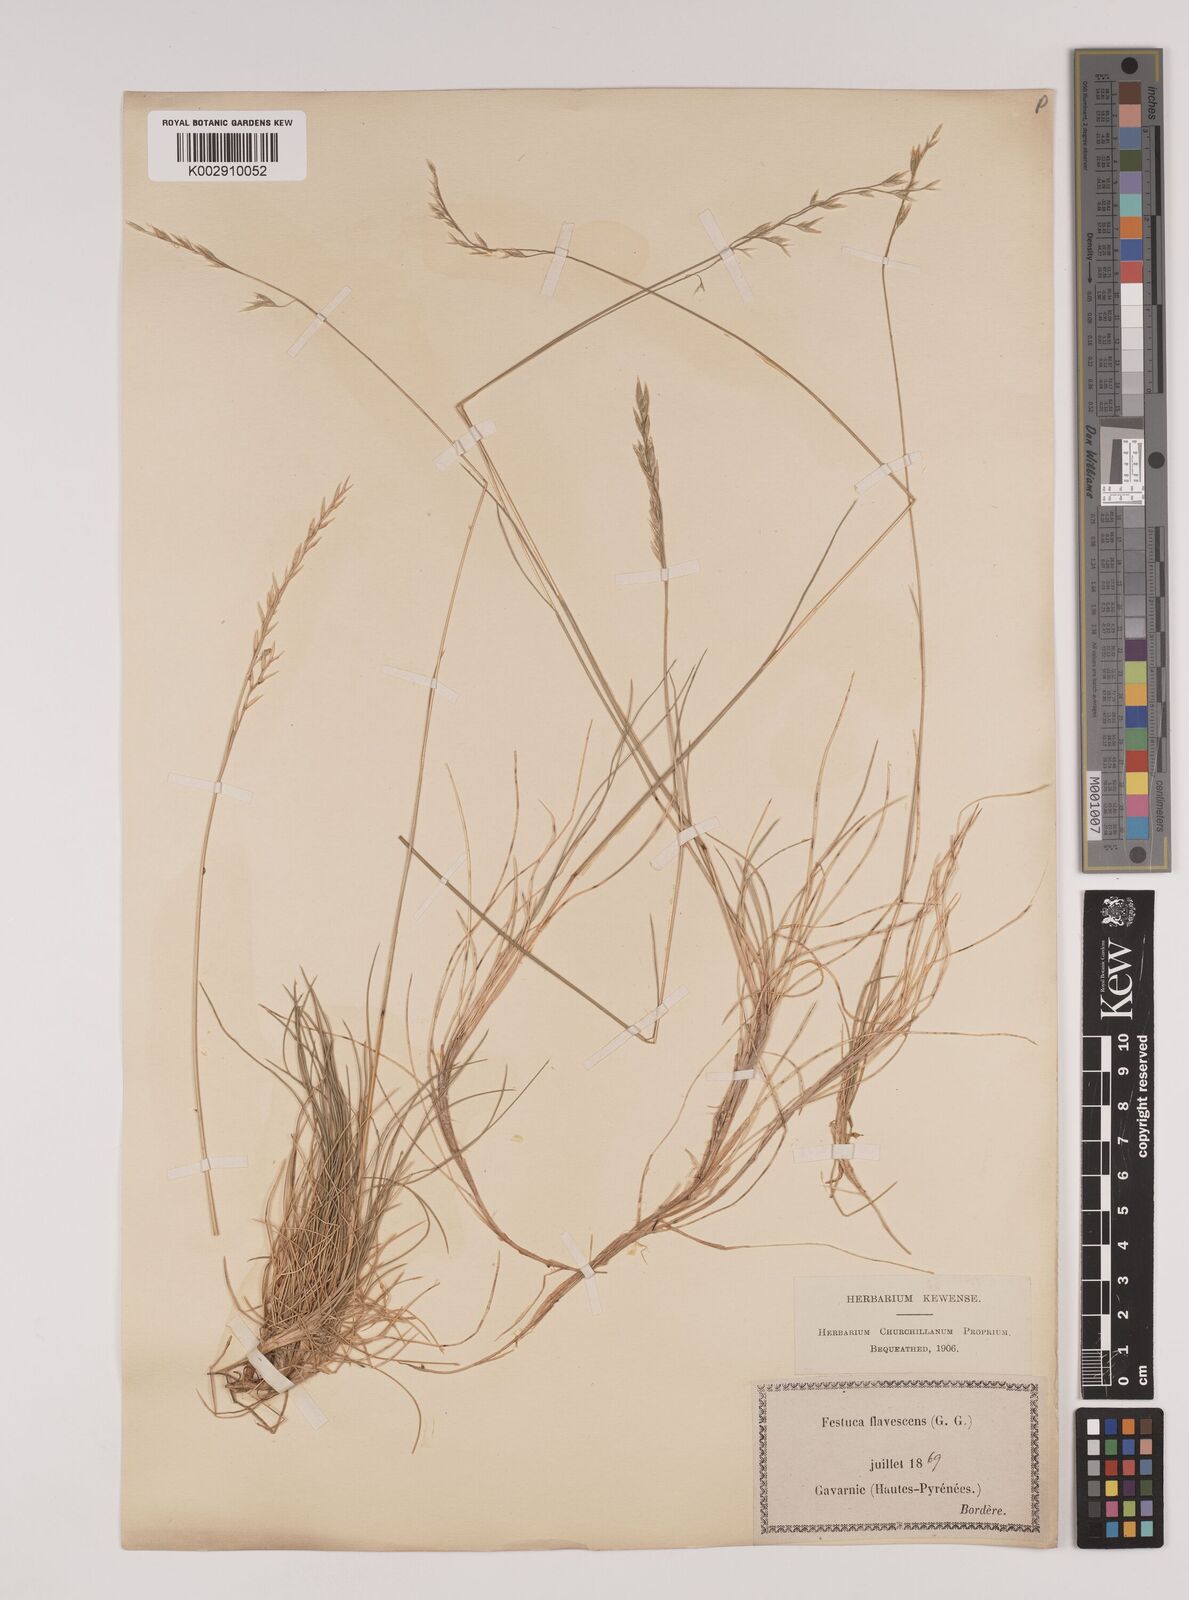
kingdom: Plantae
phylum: Tracheophyta
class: Liliopsida
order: Poales
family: Poaceae
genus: Festuca
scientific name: Festuca gautieri
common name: Spiky fescue
